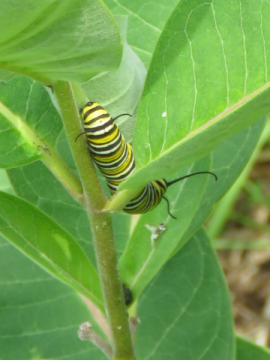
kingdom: Animalia
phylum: Arthropoda
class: Insecta
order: Lepidoptera
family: Nymphalidae
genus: Danaus
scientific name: Danaus plexippus
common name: Monarch
